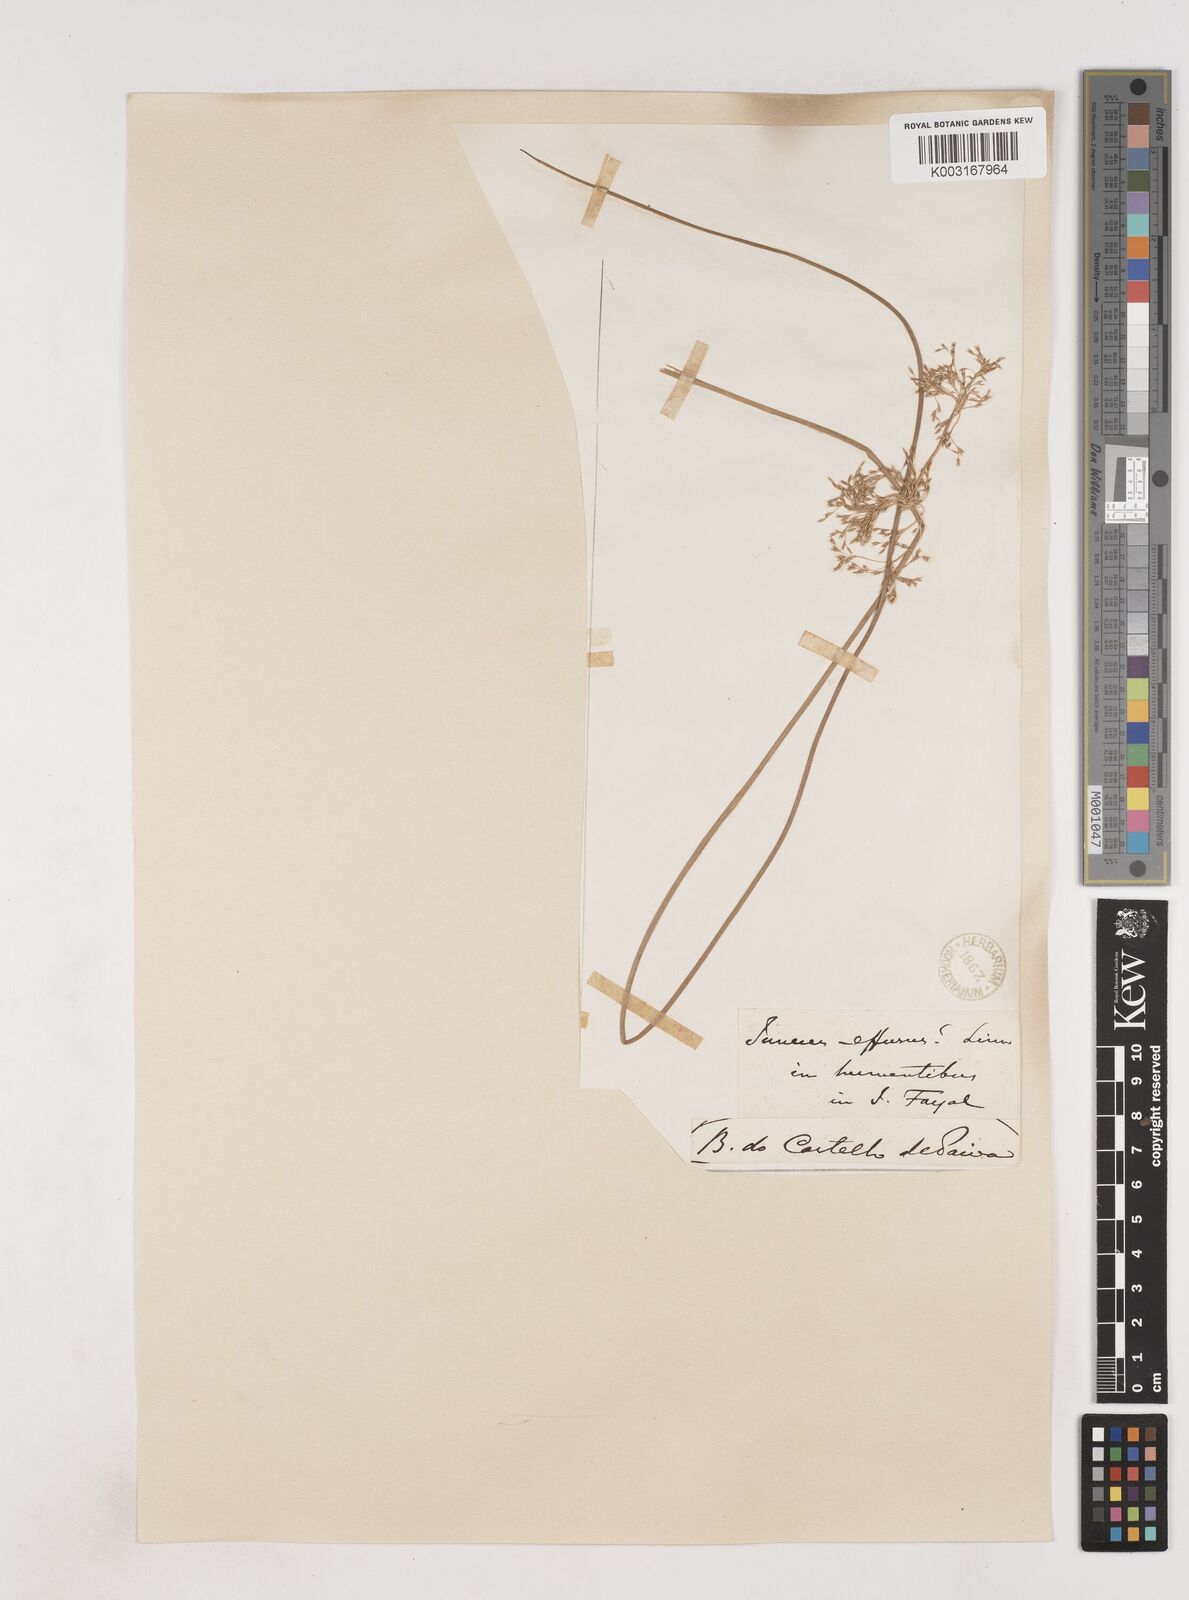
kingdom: Plantae
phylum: Tracheophyta
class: Liliopsida
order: Poales
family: Juncaceae
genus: Juncus
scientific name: Juncus effusus
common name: Soft rush
